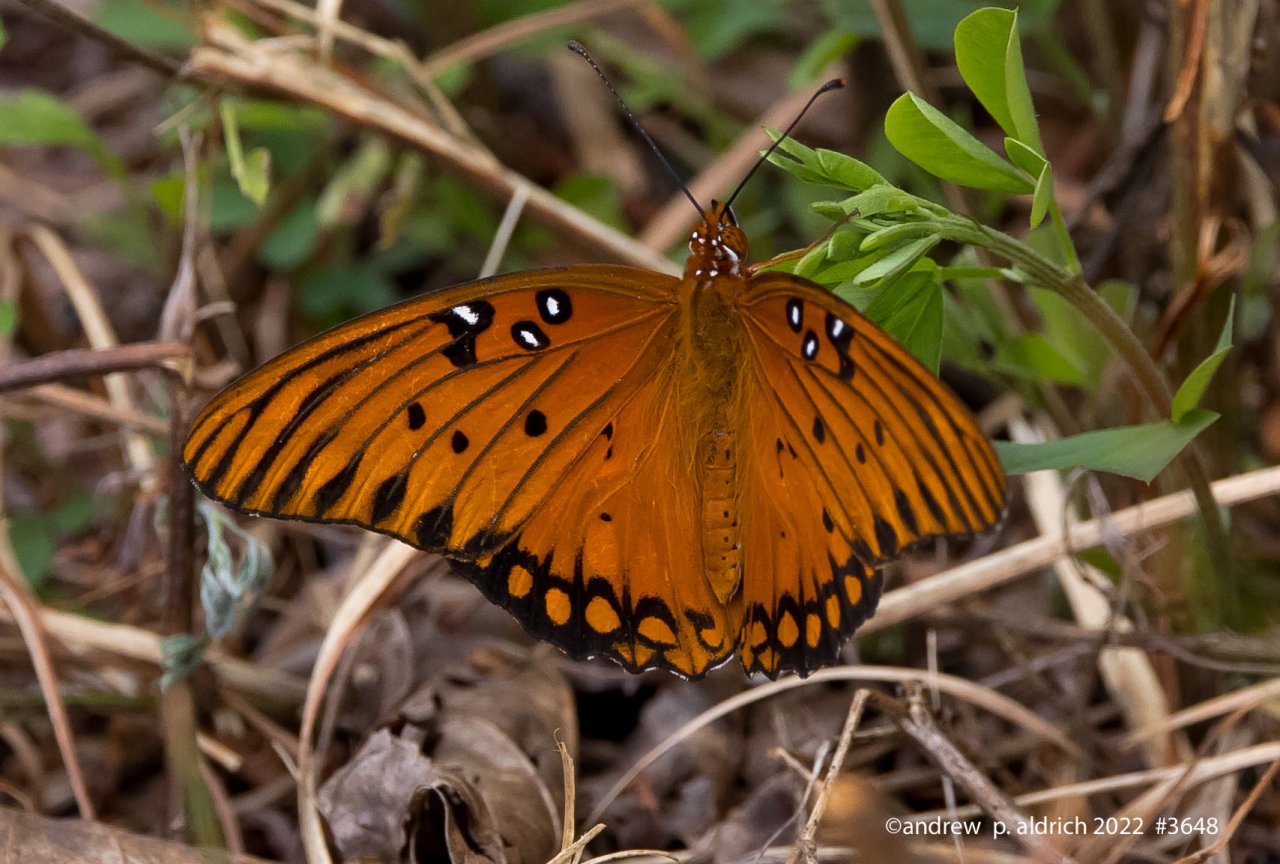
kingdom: Animalia
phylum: Arthropoda
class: Insecta
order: Lepidoptera
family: Nymphalidae
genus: Dione
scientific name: Dione vanillae
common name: Gulf Fritillary
